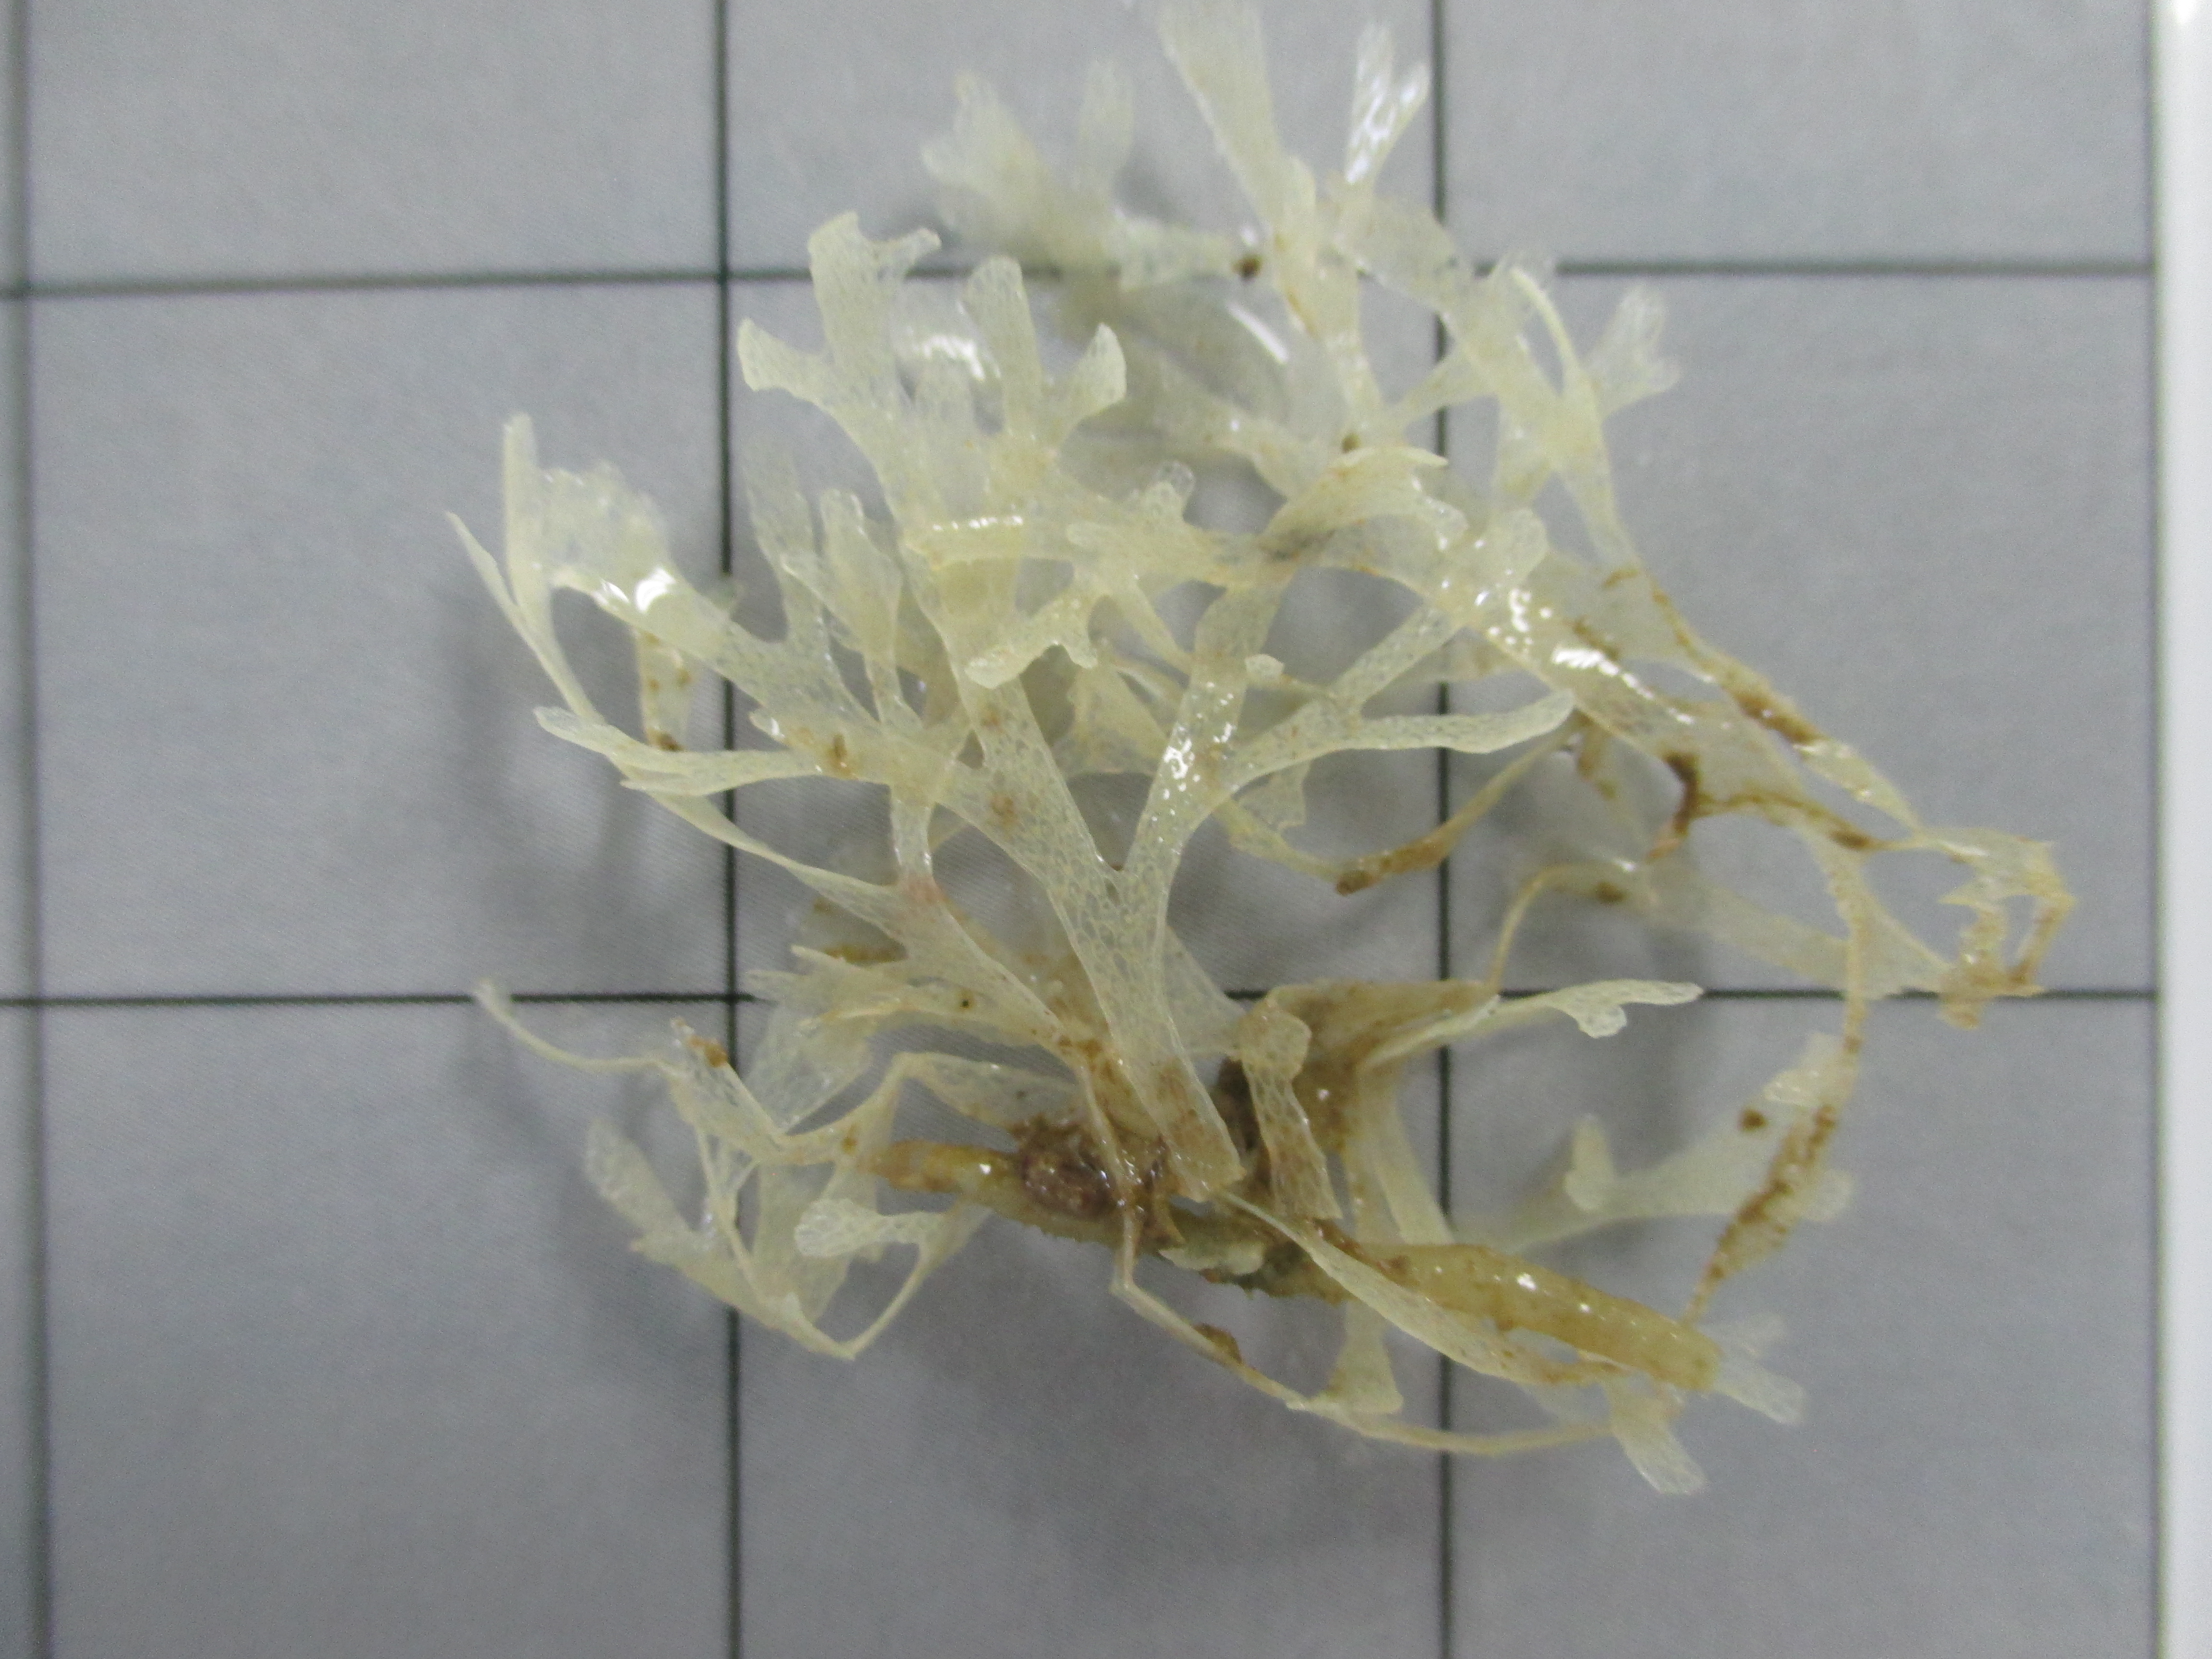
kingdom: Animalia
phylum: Bryozoa
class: Gymnolaemata
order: Cheilostomatida
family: Calwelliidae
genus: Onchoporella
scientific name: Onchoporella bombycina
